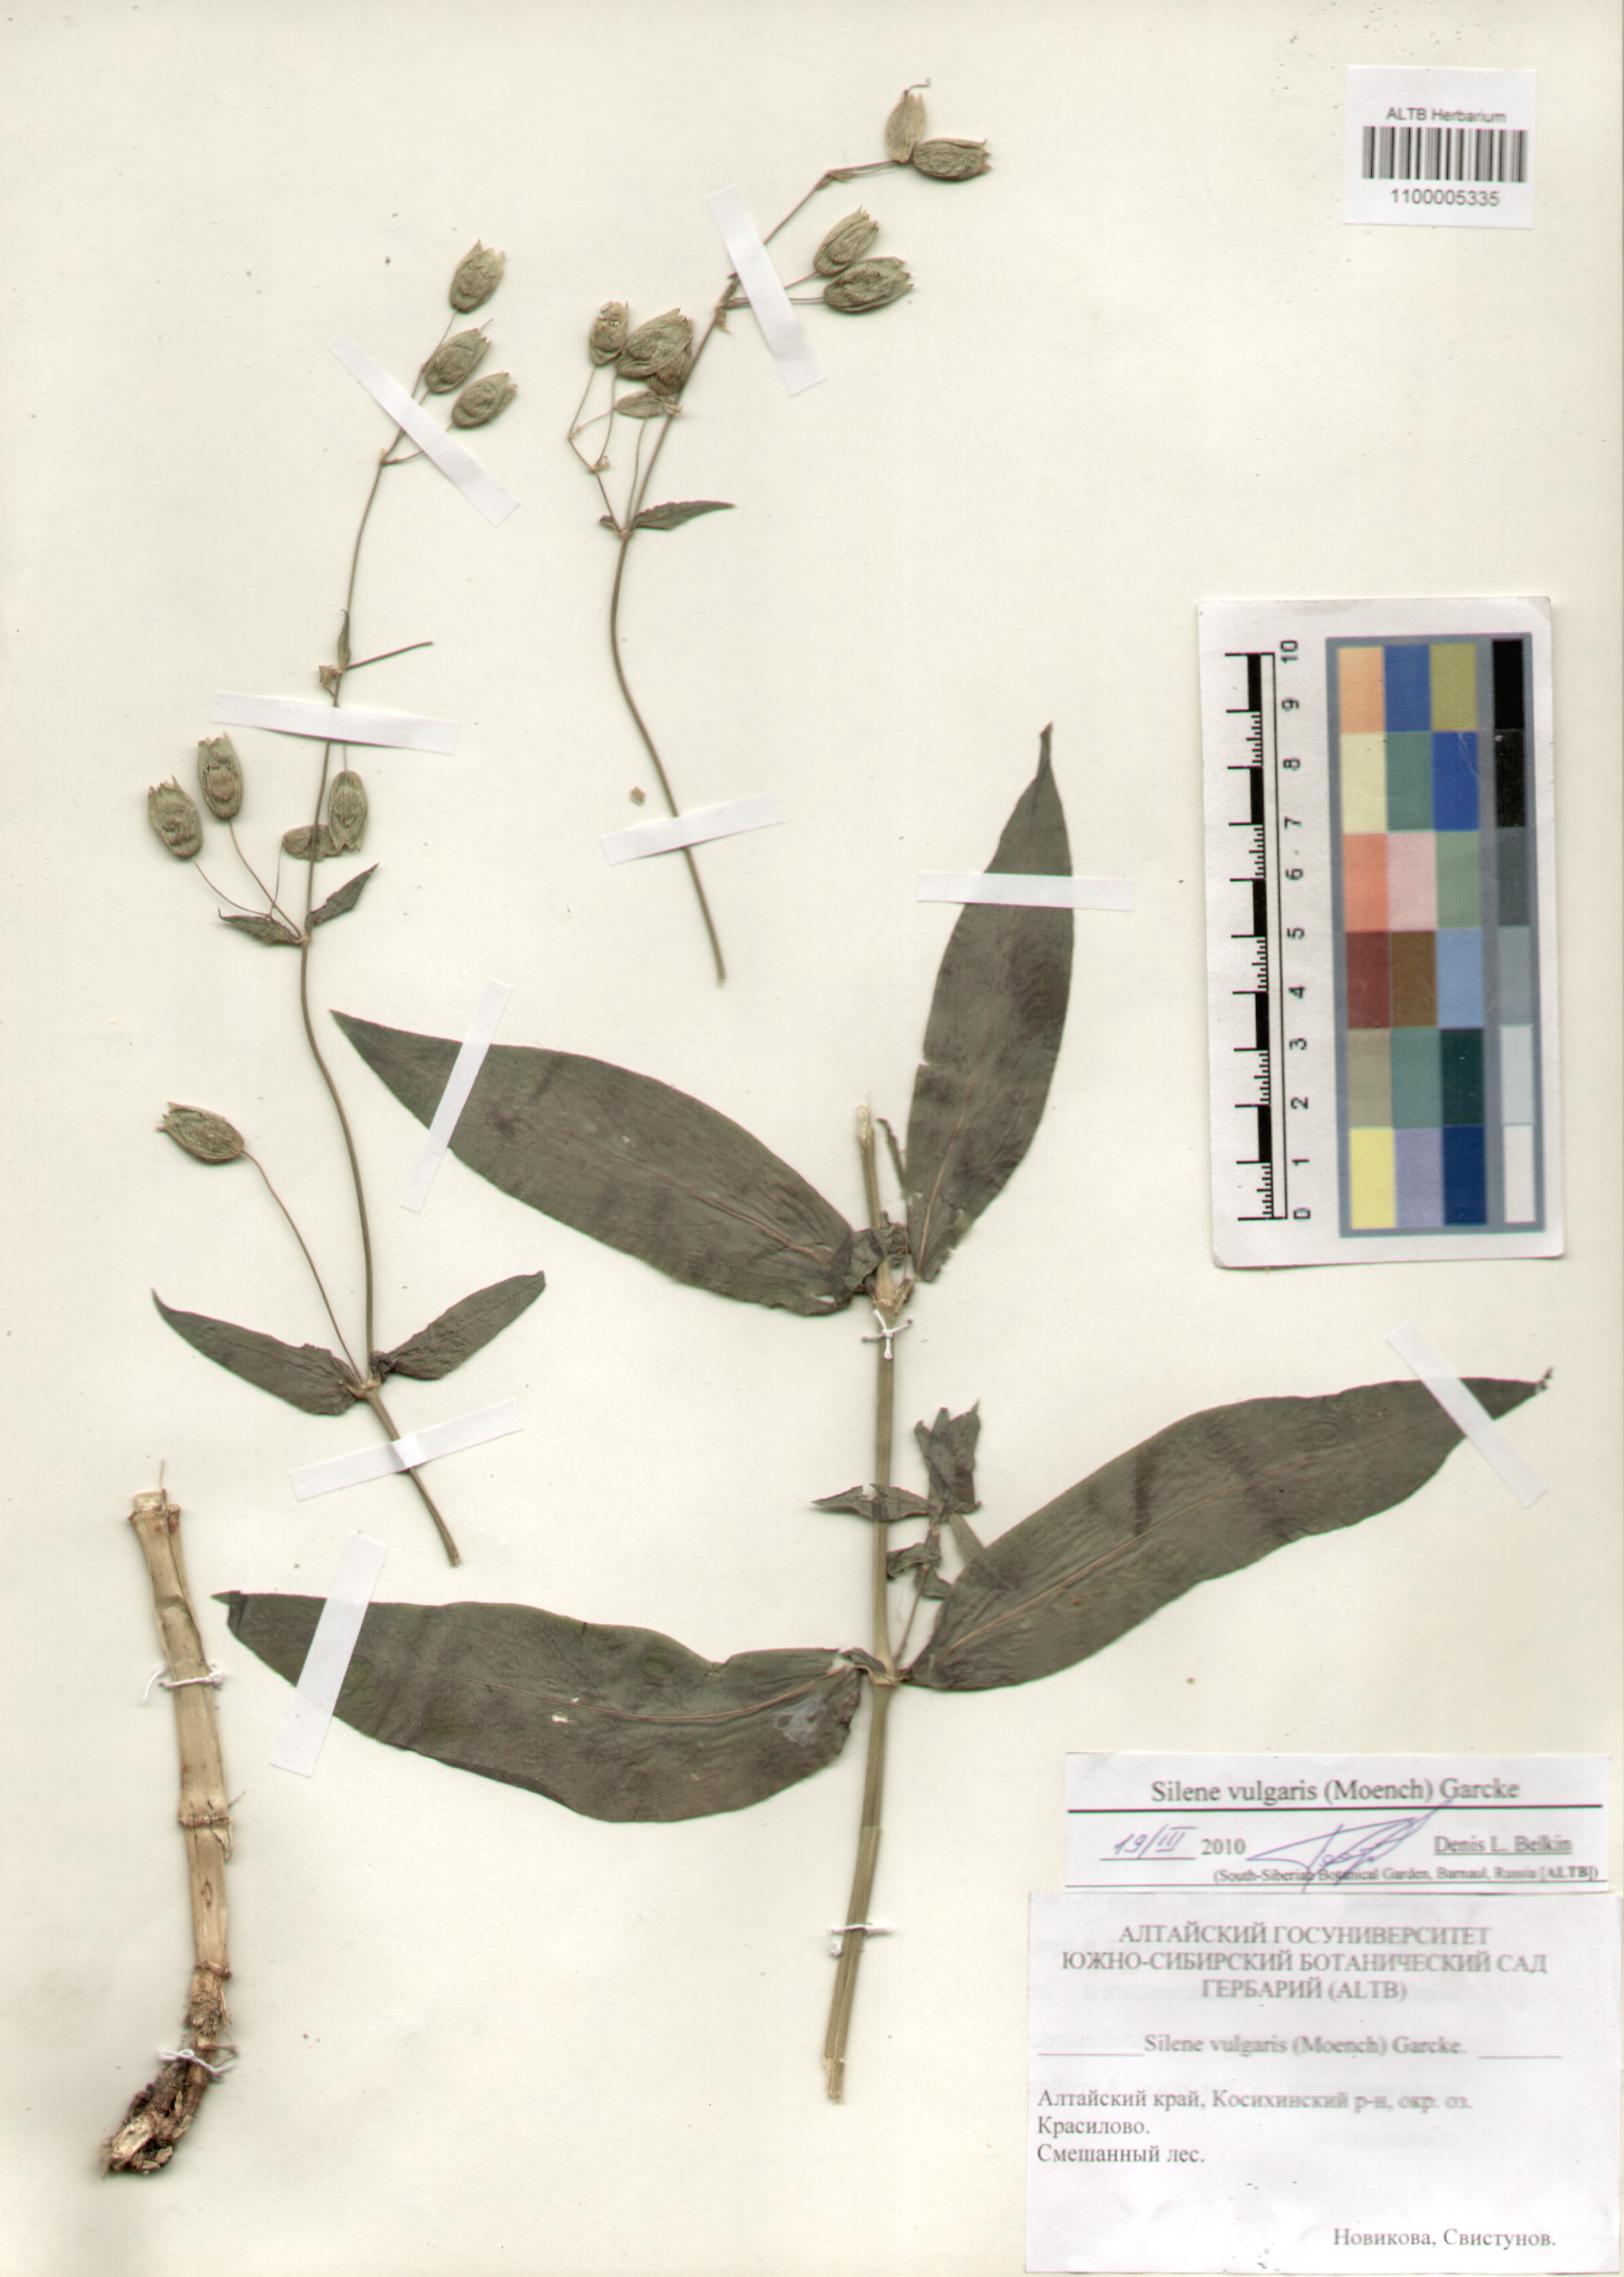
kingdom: Plantae
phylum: Tracheophyta
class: Magnoliopsida
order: Caryophyllales
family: Caryophyllaceae
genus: Silene
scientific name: Silene vulgaris
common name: Bladder campion
